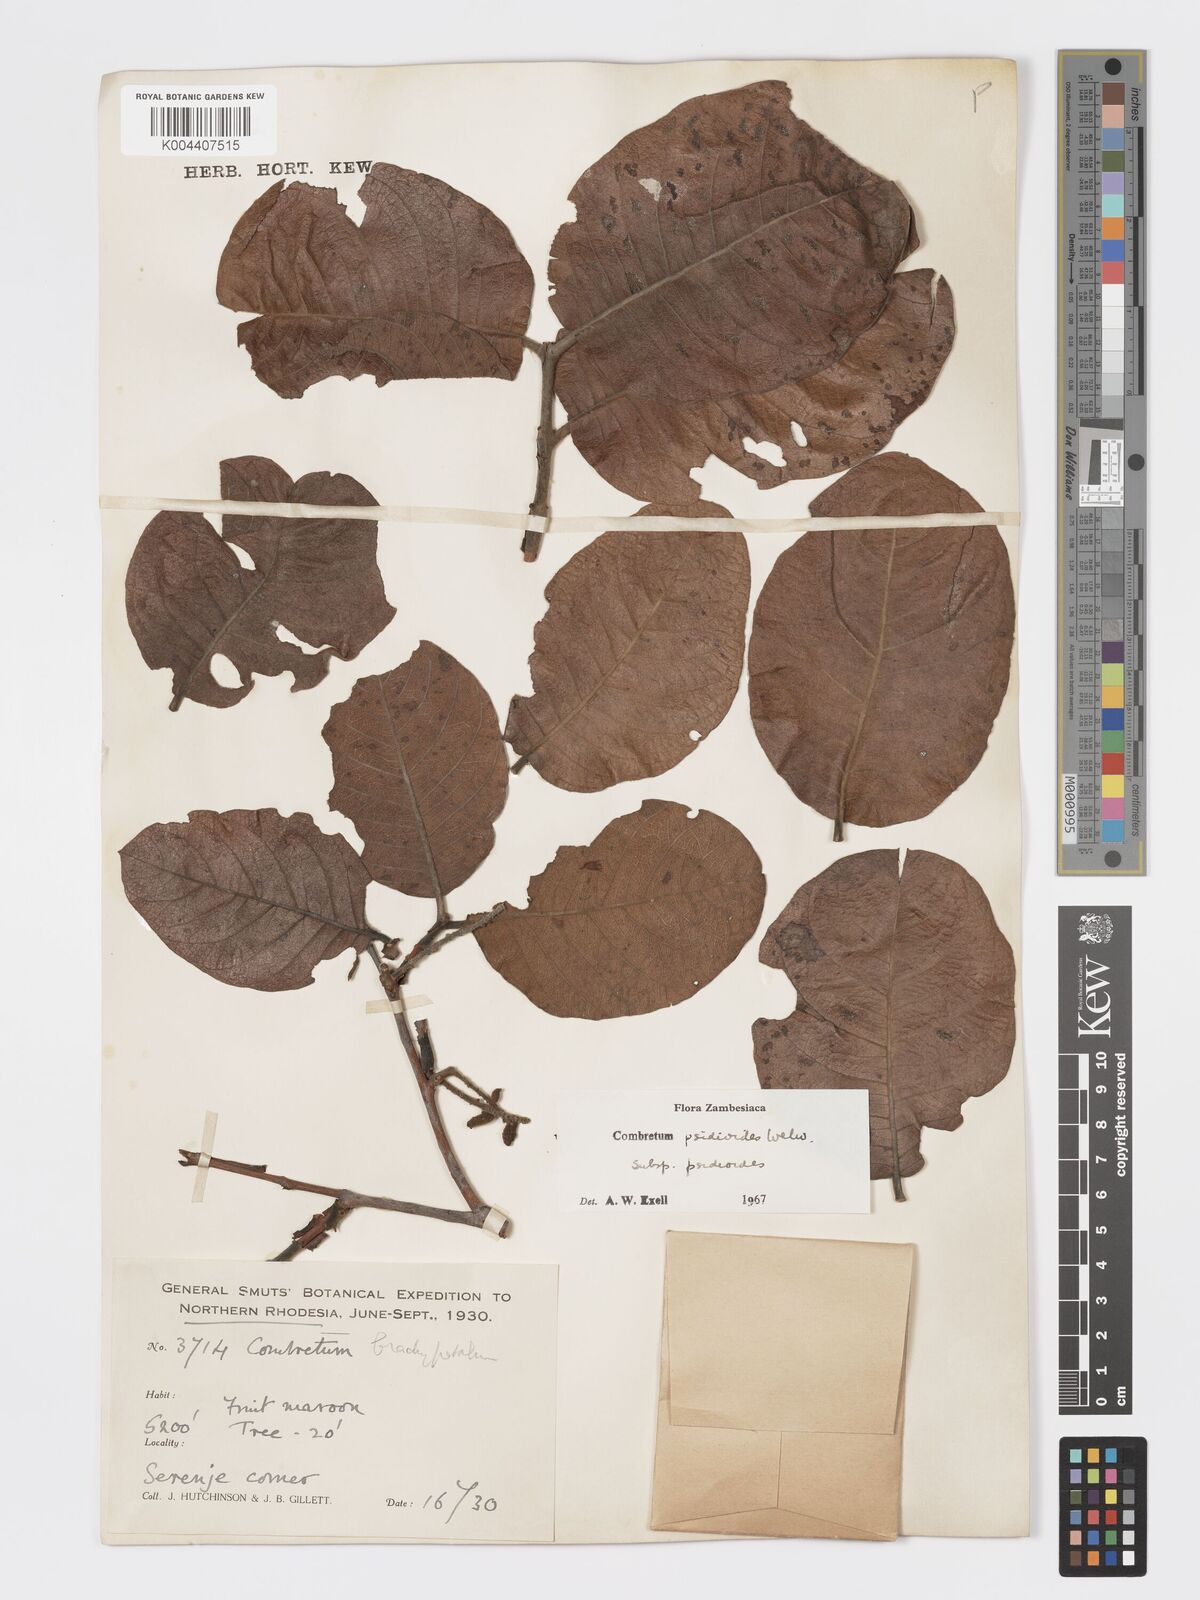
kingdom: Plantae
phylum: Tracheophyta
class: Magnoliopsida
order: Myrtales
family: Combretaceae
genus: Combretum
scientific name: Combretum psidioides
